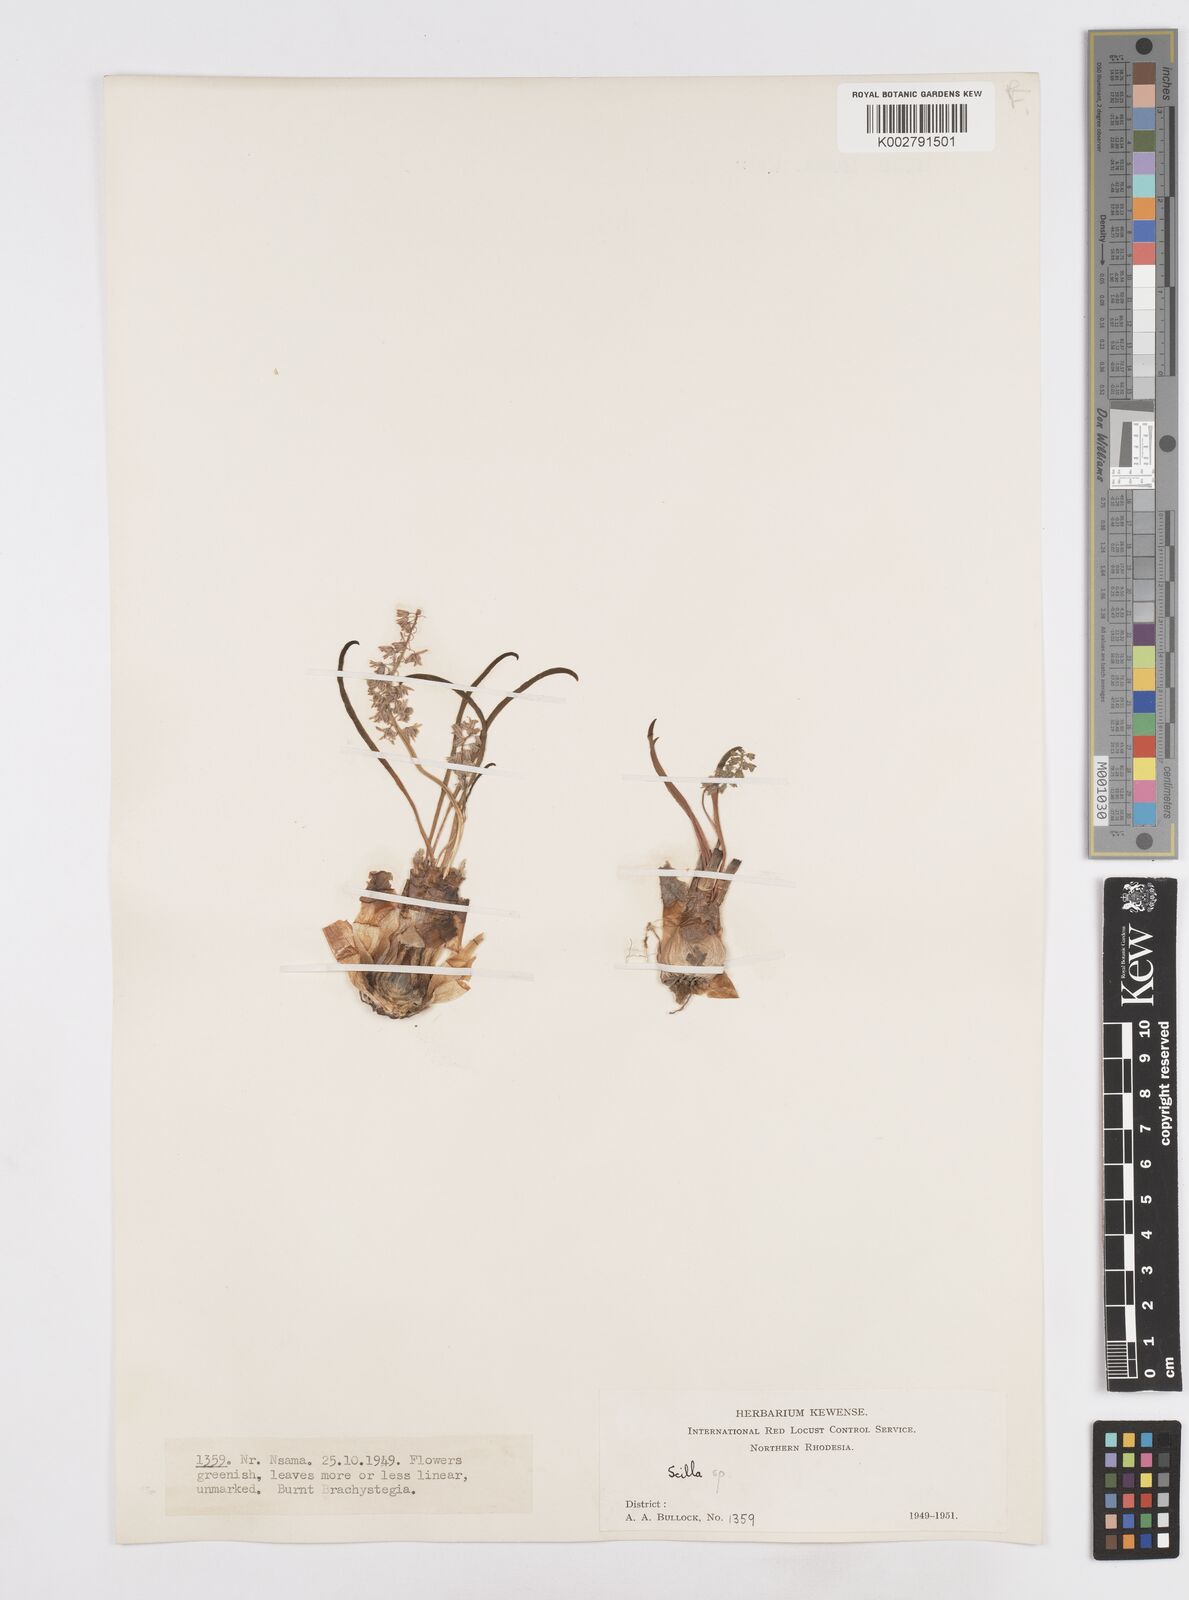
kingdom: Plantae
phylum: Tracheophyta
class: Liliopsida
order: Asparagales
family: Asparagaceae
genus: Scilla
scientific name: Scilla
